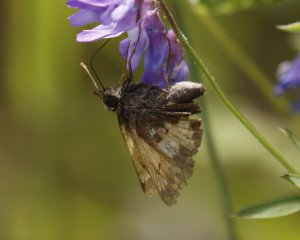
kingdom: Animalia
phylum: Arthropoda
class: Insecta
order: Lepidoptera
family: Hesperiidae
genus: Lon
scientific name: Lon hobomok
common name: Hobomok Skipper
